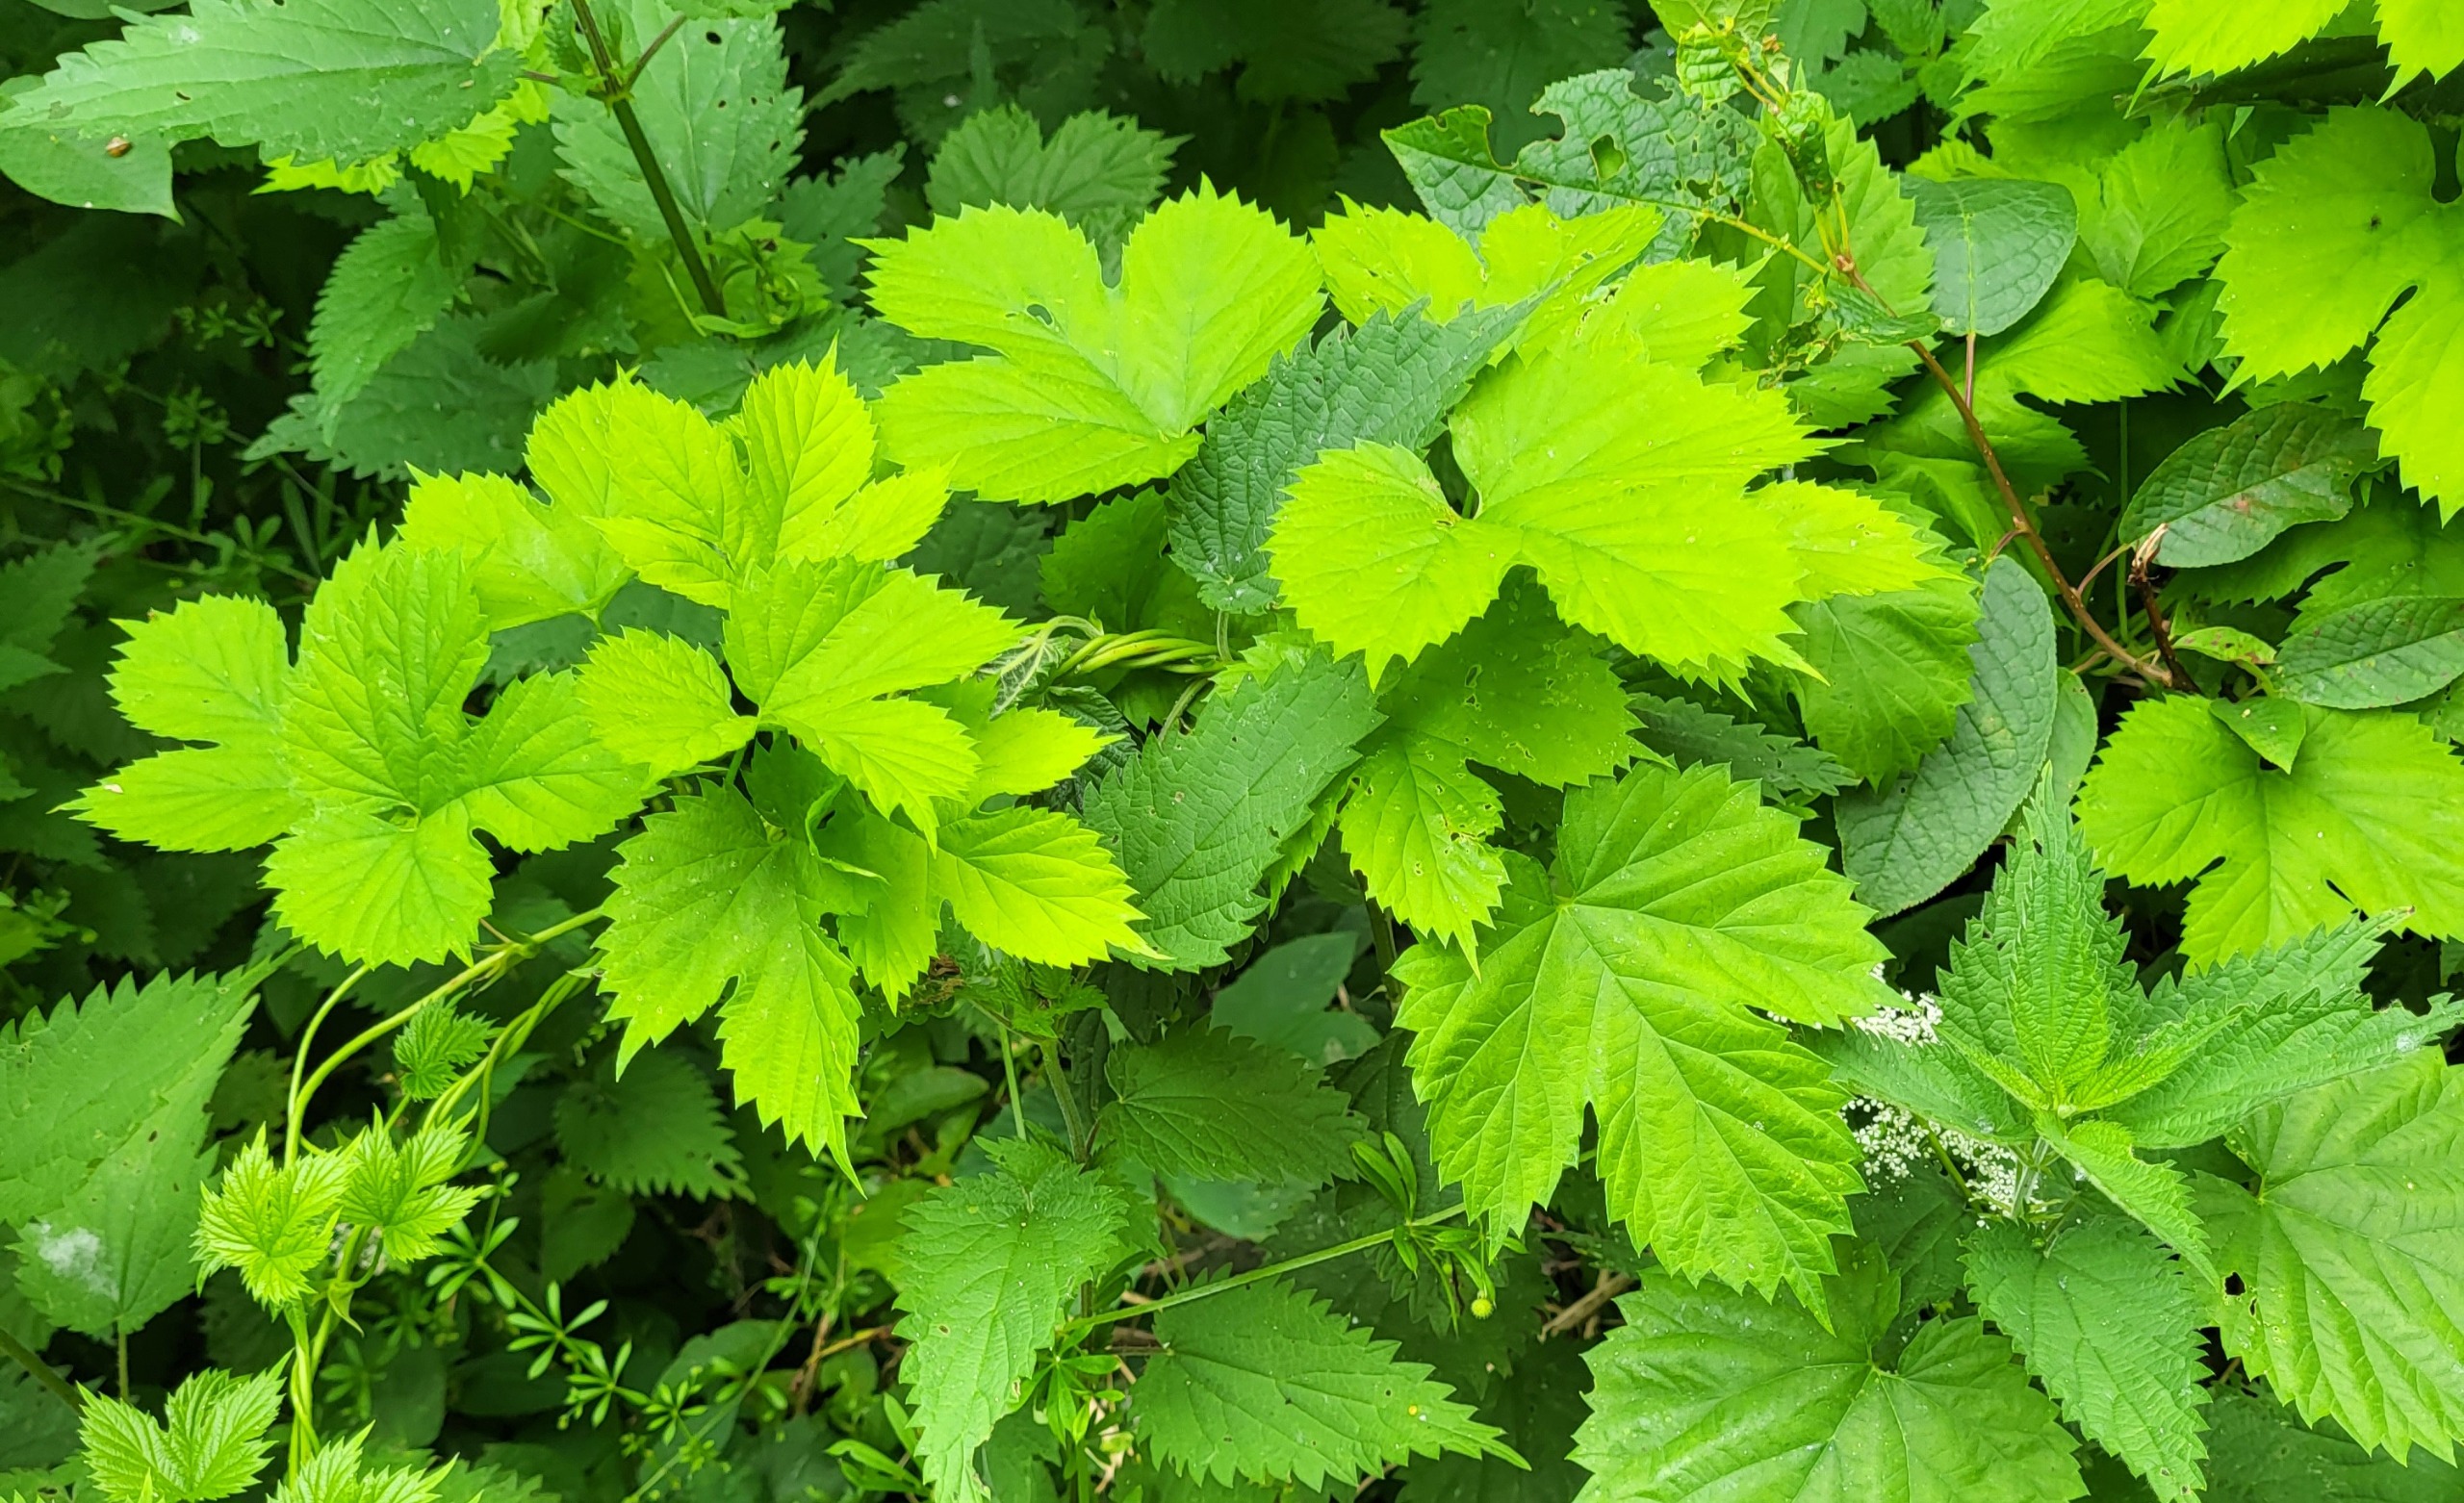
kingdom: Plantae
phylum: Tracheophyta
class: Magnoliopsida
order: Rosales
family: Cannabaceae
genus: Humulus
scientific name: Humulus lupulus
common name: Humle
